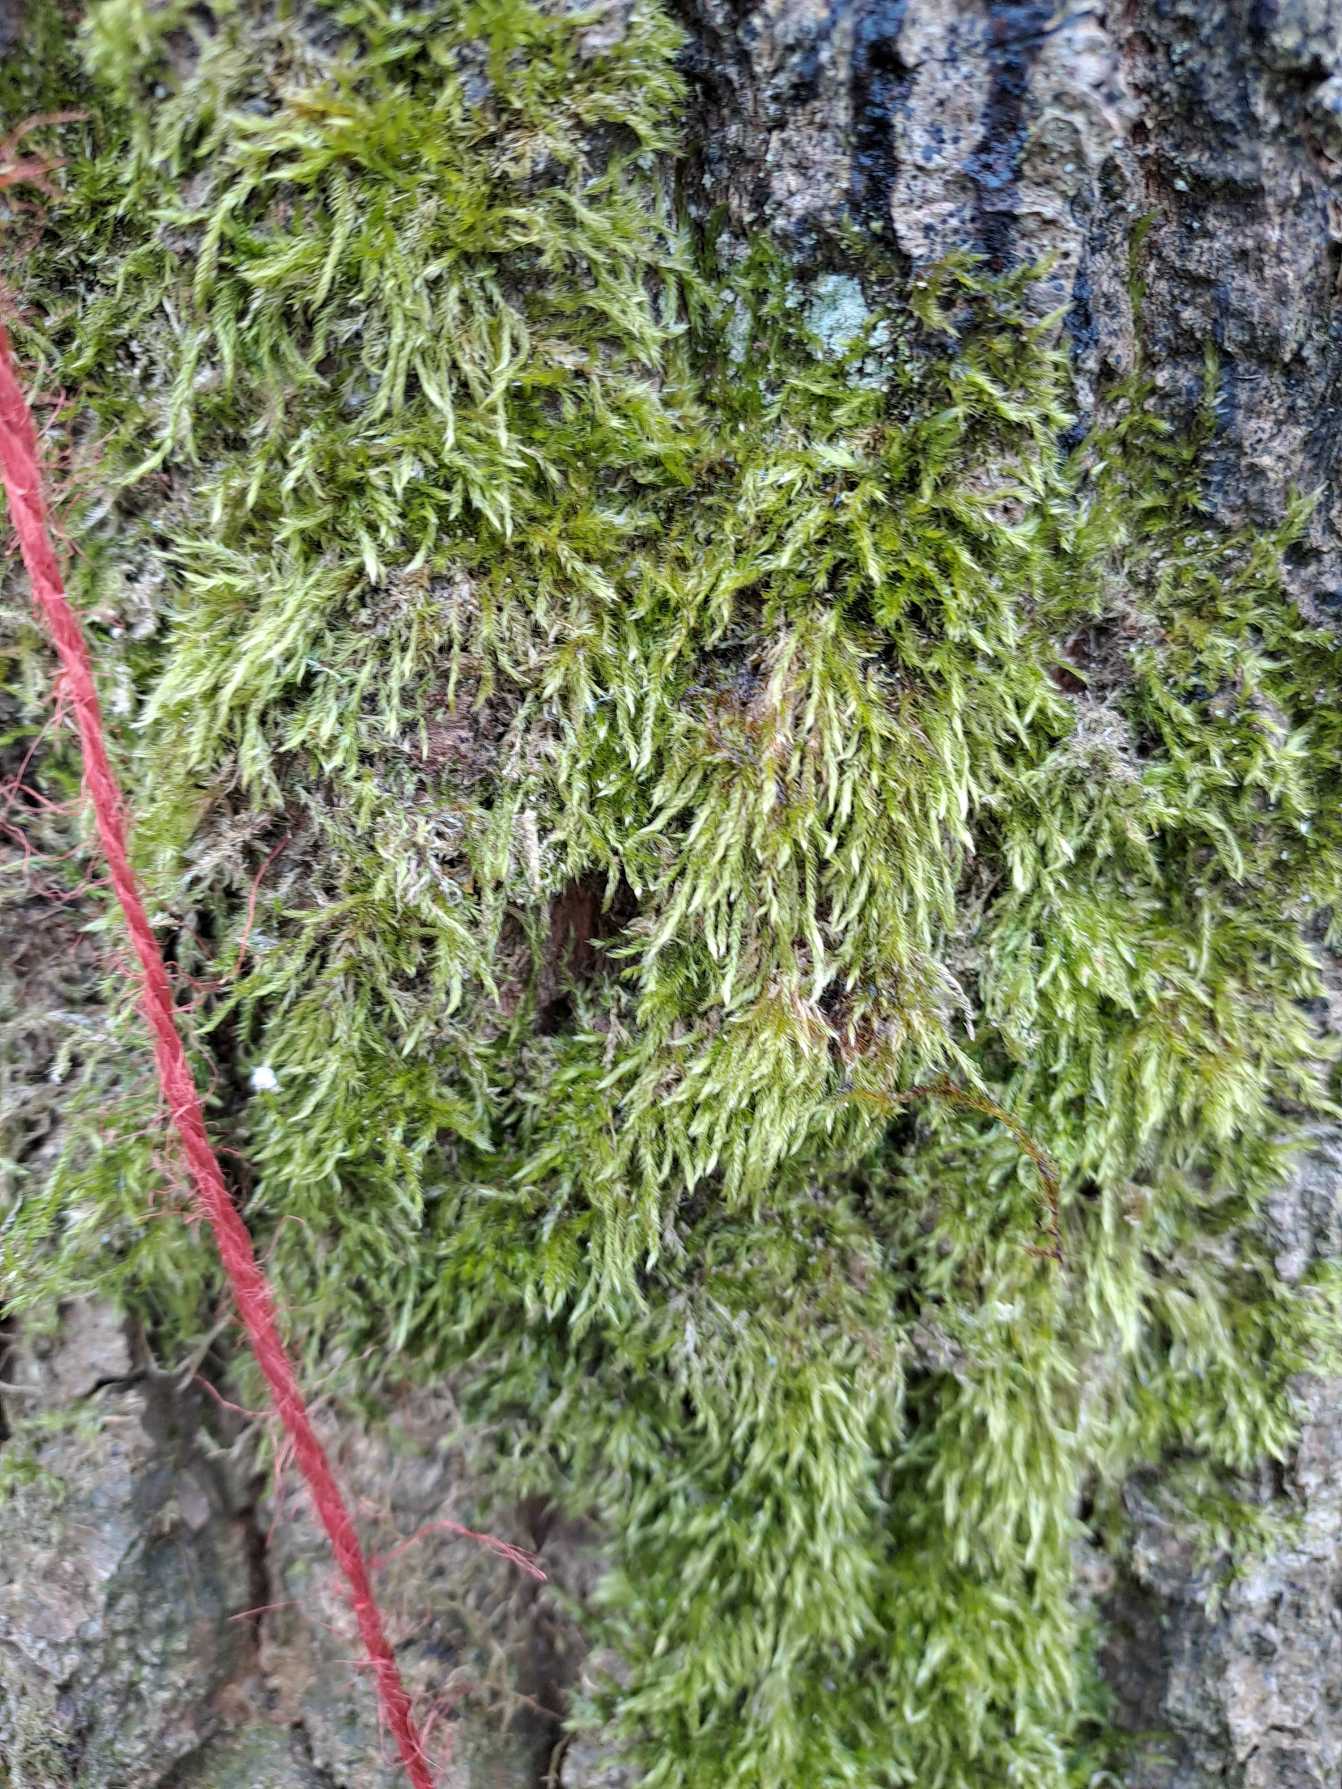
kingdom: Plantae
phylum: Bryophyta
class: Bryopsida
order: Hypnales
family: Hypnaceae
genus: Hypnum
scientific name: Hypnum
